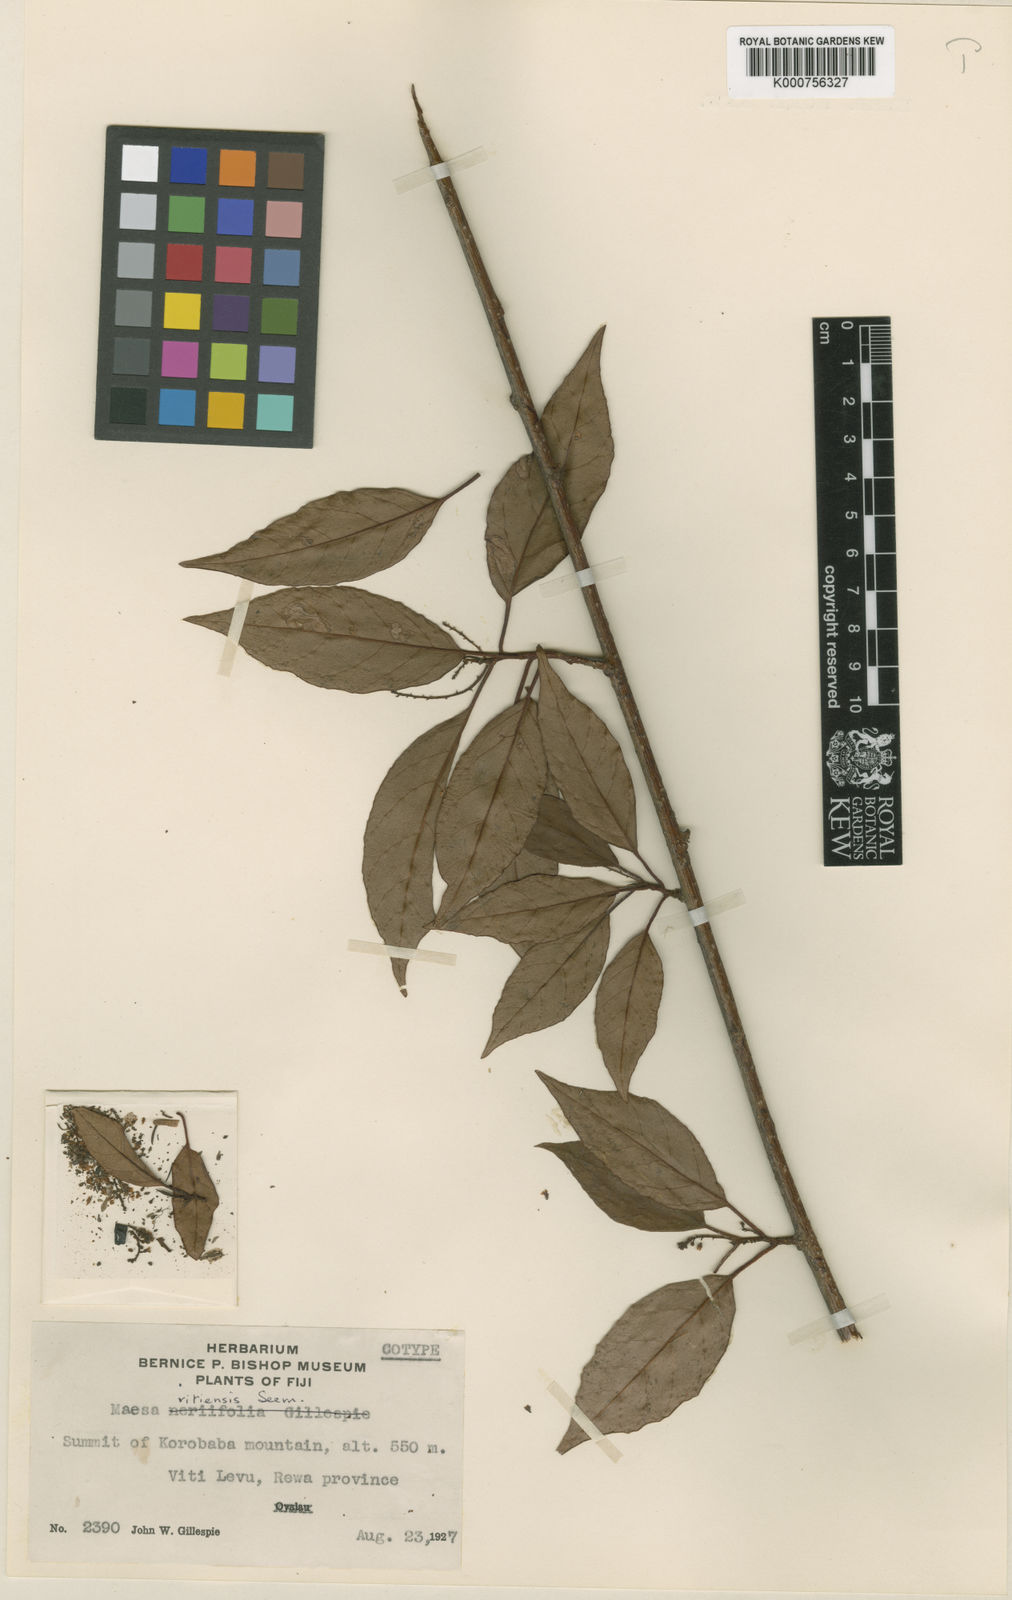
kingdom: Plantae
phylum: Tracheophyta
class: Magnoliopsida
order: Ericales
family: Primulaceae
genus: Maesa
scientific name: Maesa vitiensis
